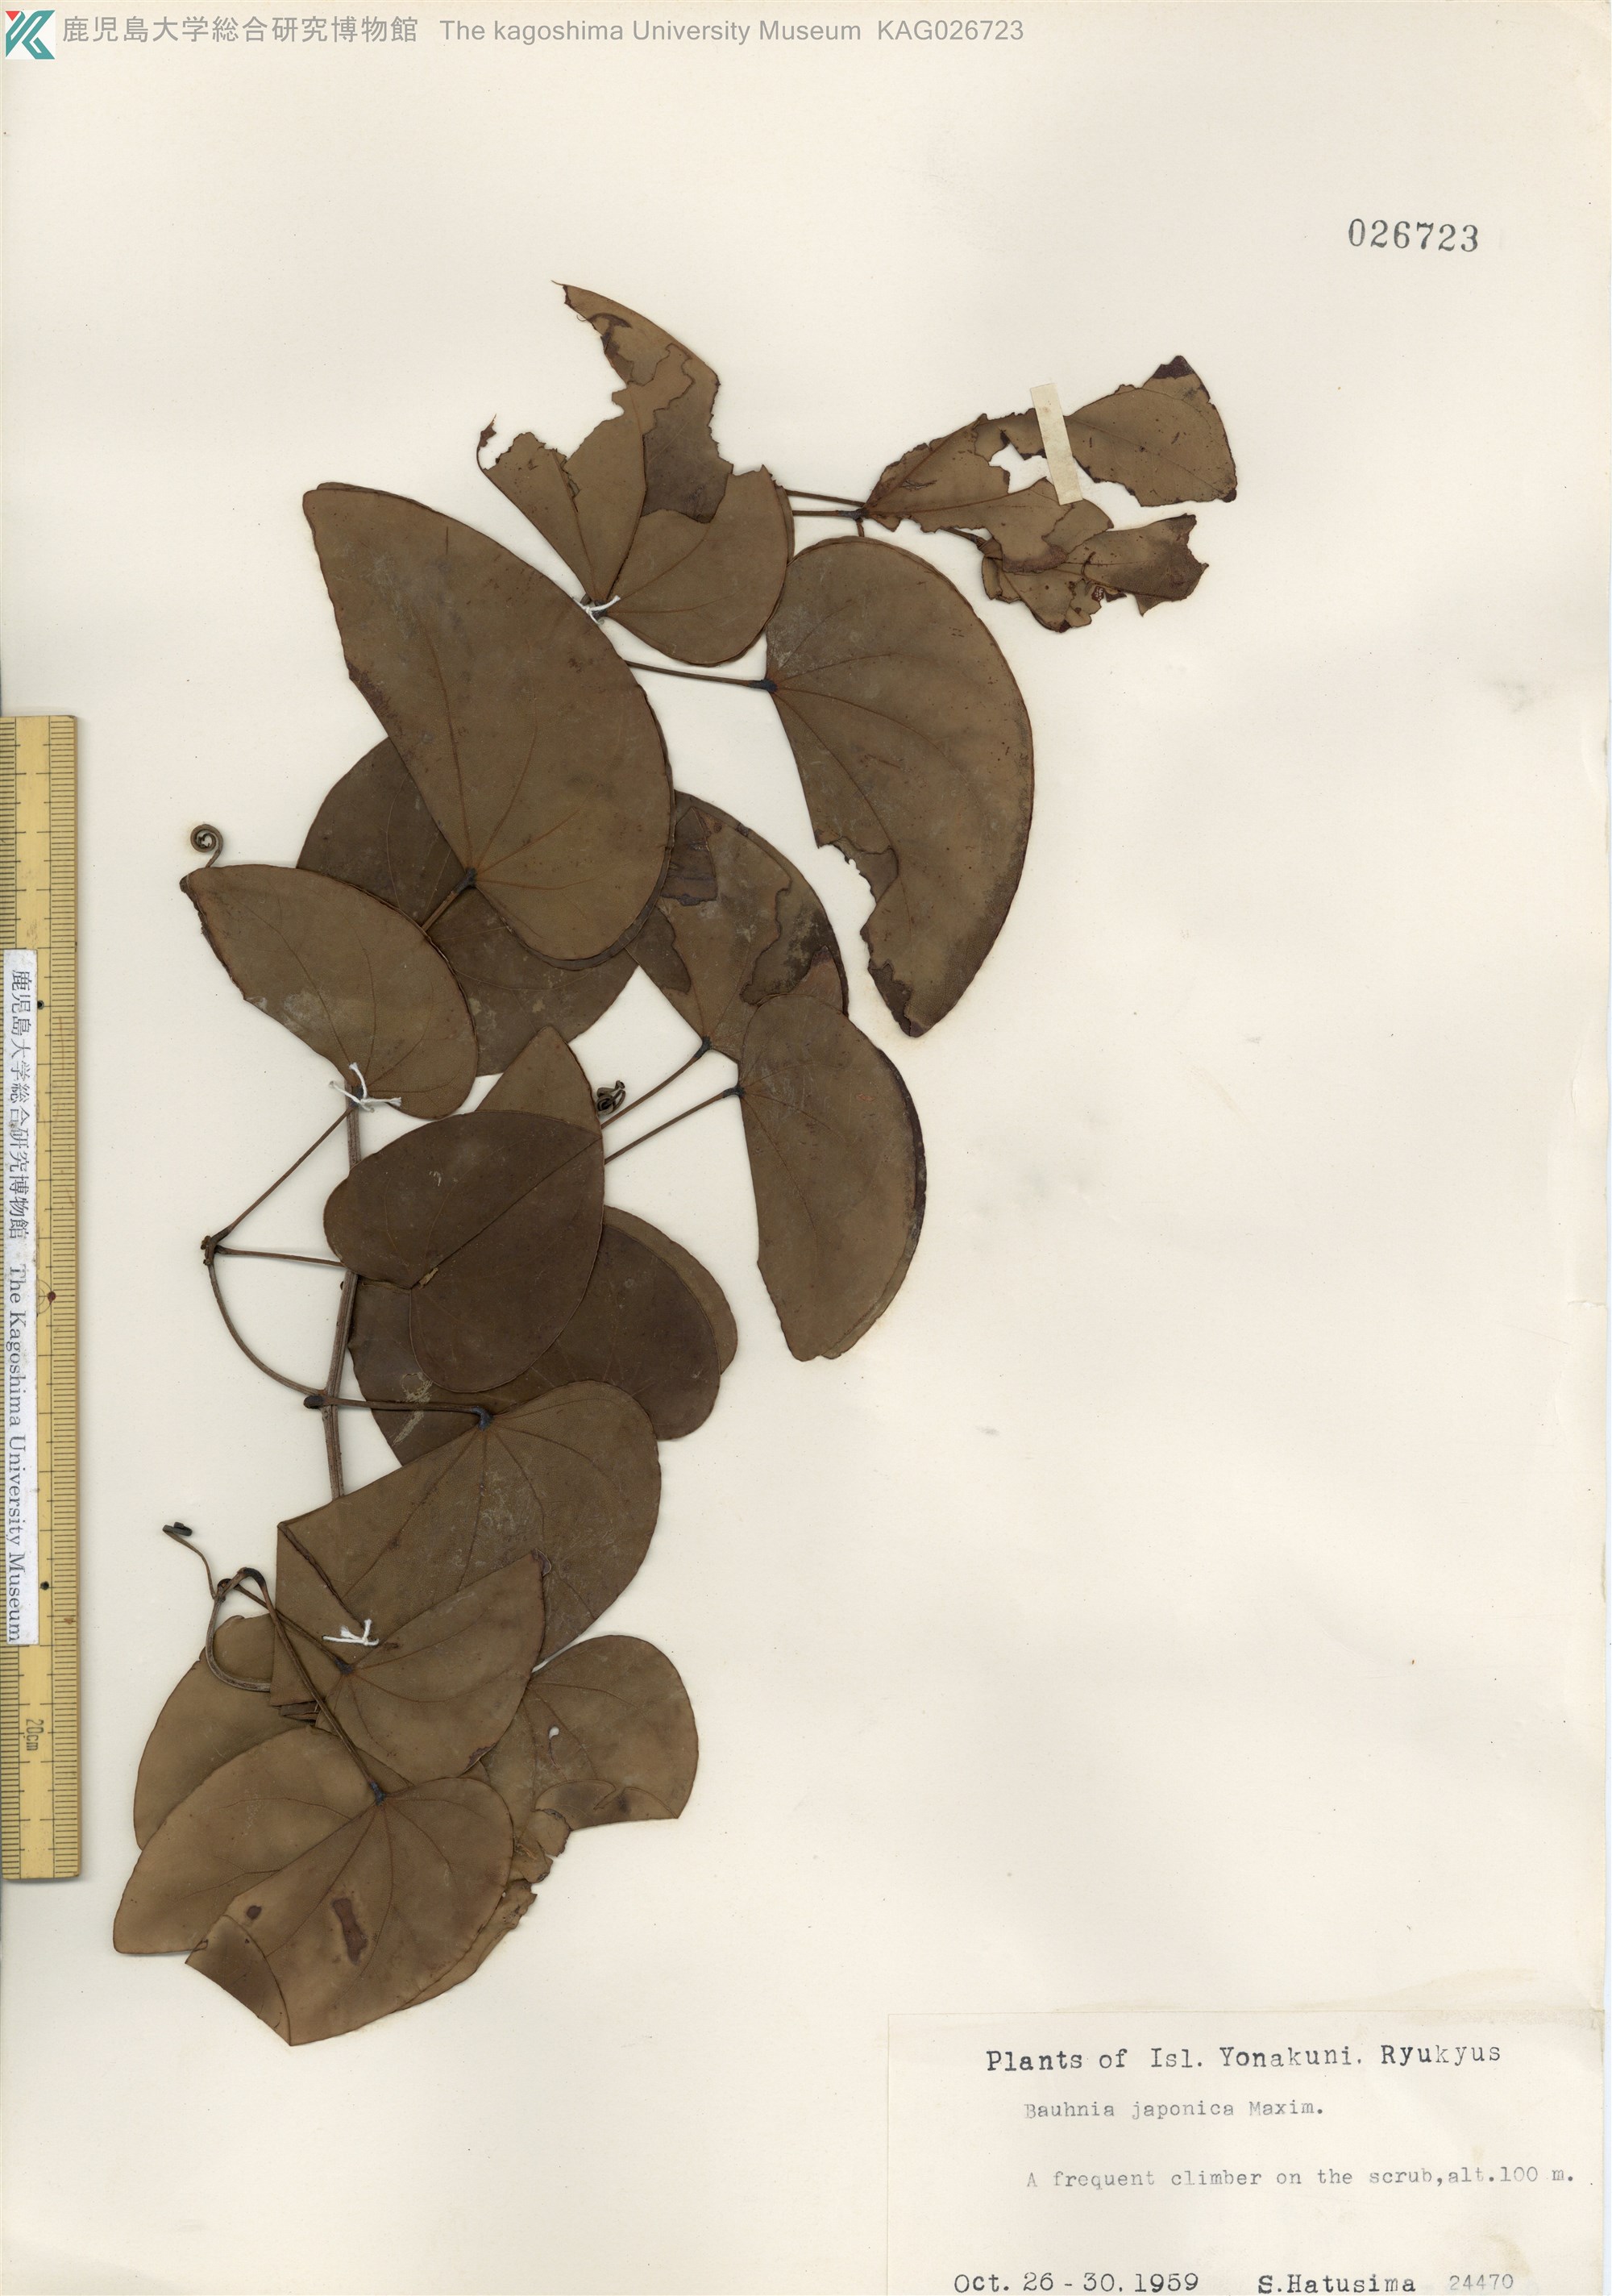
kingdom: Plantae
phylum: Tracheophyta
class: Magnoliopsida
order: Fabales
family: Fabaceae
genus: Phanera
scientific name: Phanera japonica
